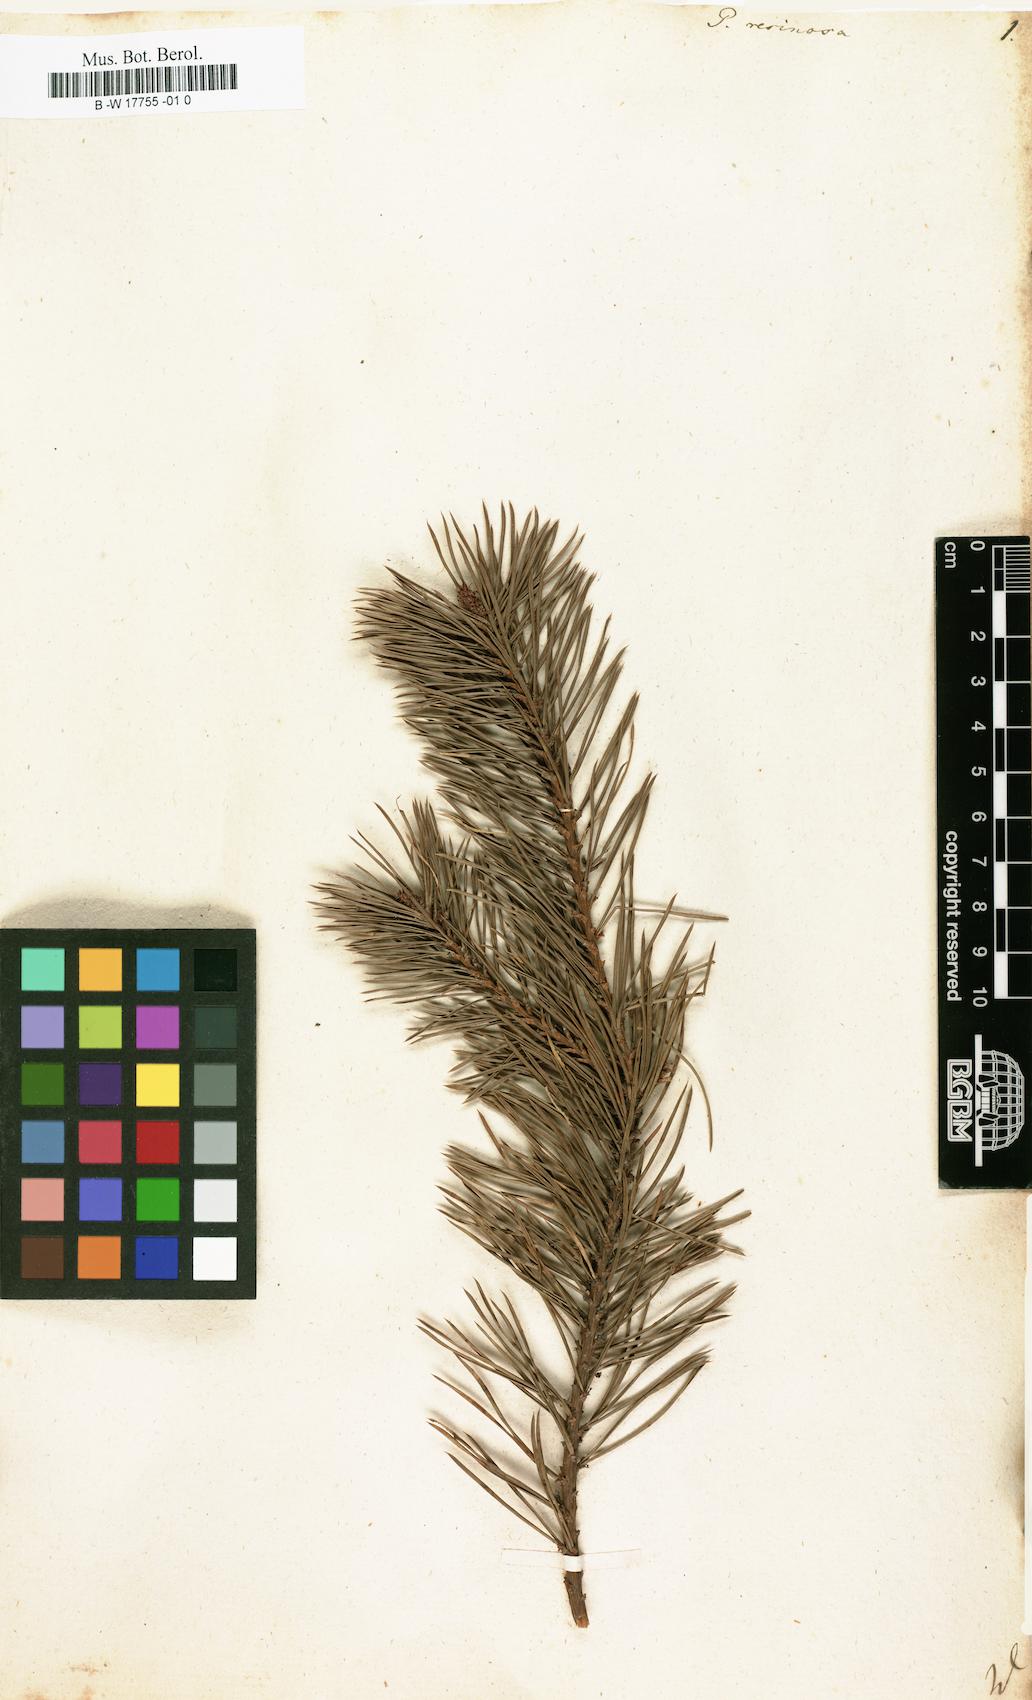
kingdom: Plantae
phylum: Tracheophyta
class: Pinopsida
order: Pinales
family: Pinaceae
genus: Pinus
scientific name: Pinus resinosa
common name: Norway pine
